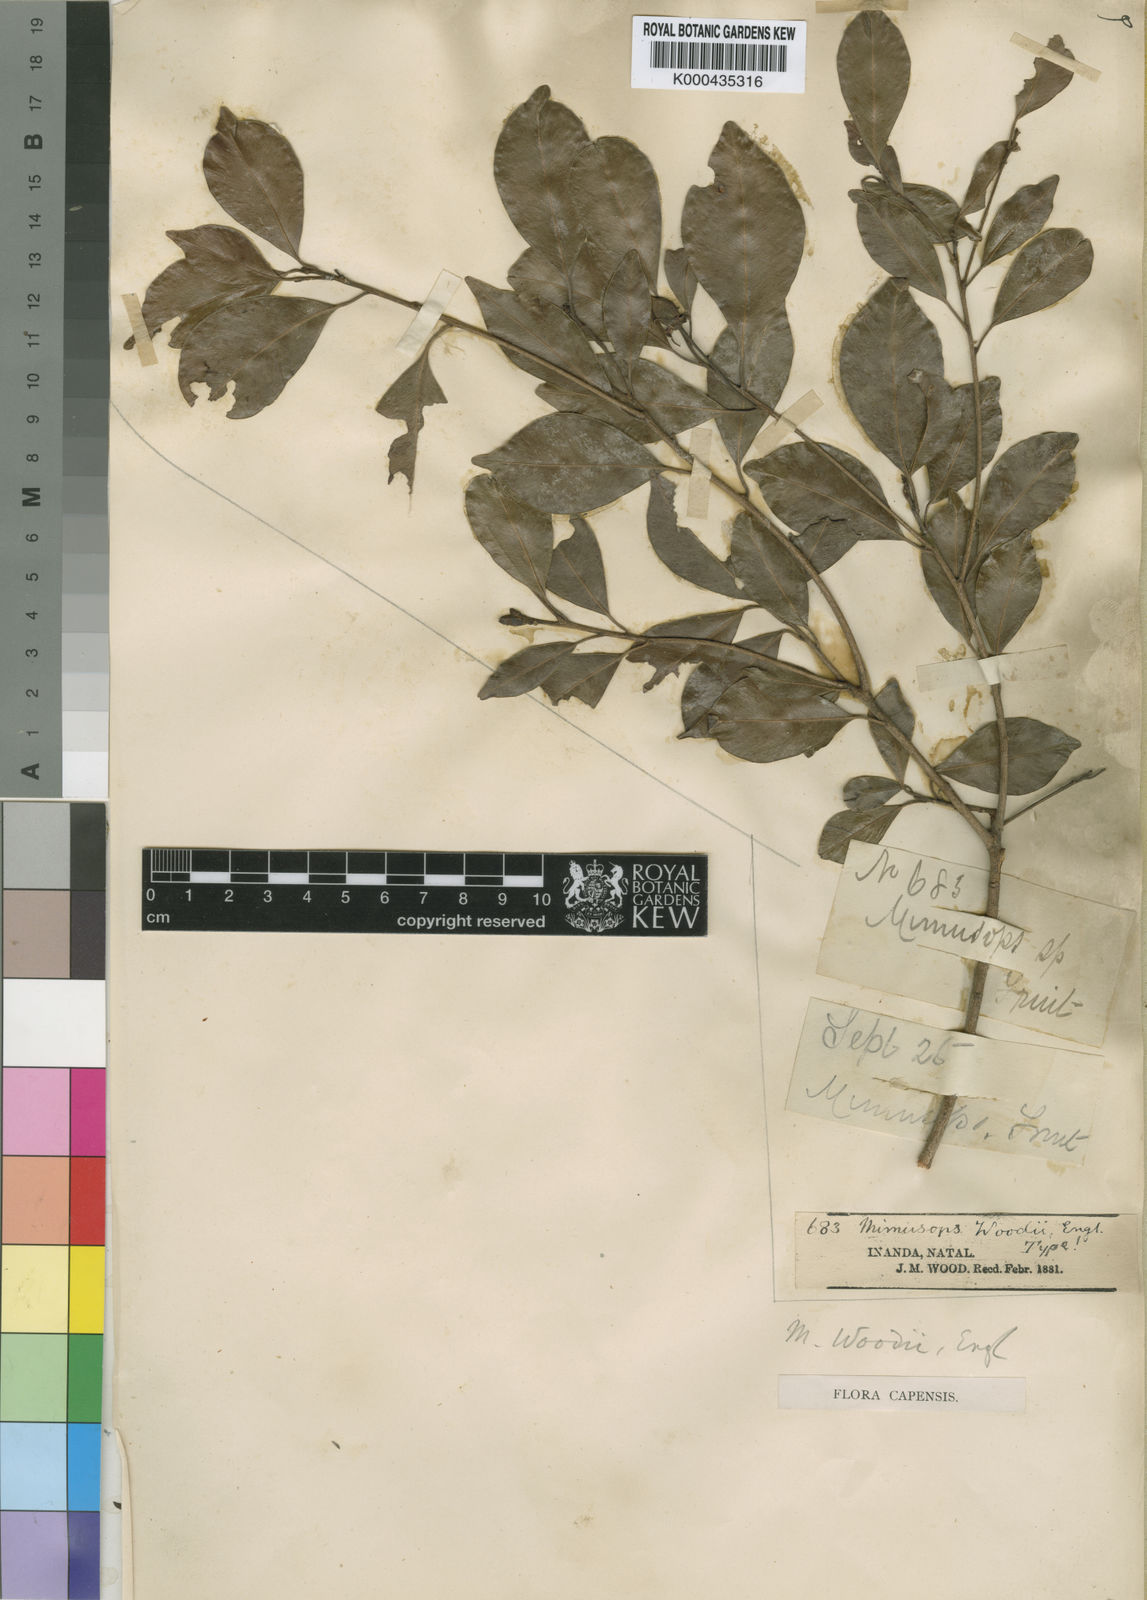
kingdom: Plantae
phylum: Tracheophyta
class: Magnoliopsida
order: Ericales
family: Sapotaceae
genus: Mimusops
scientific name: Mimusops obovata
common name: Red milkwood
